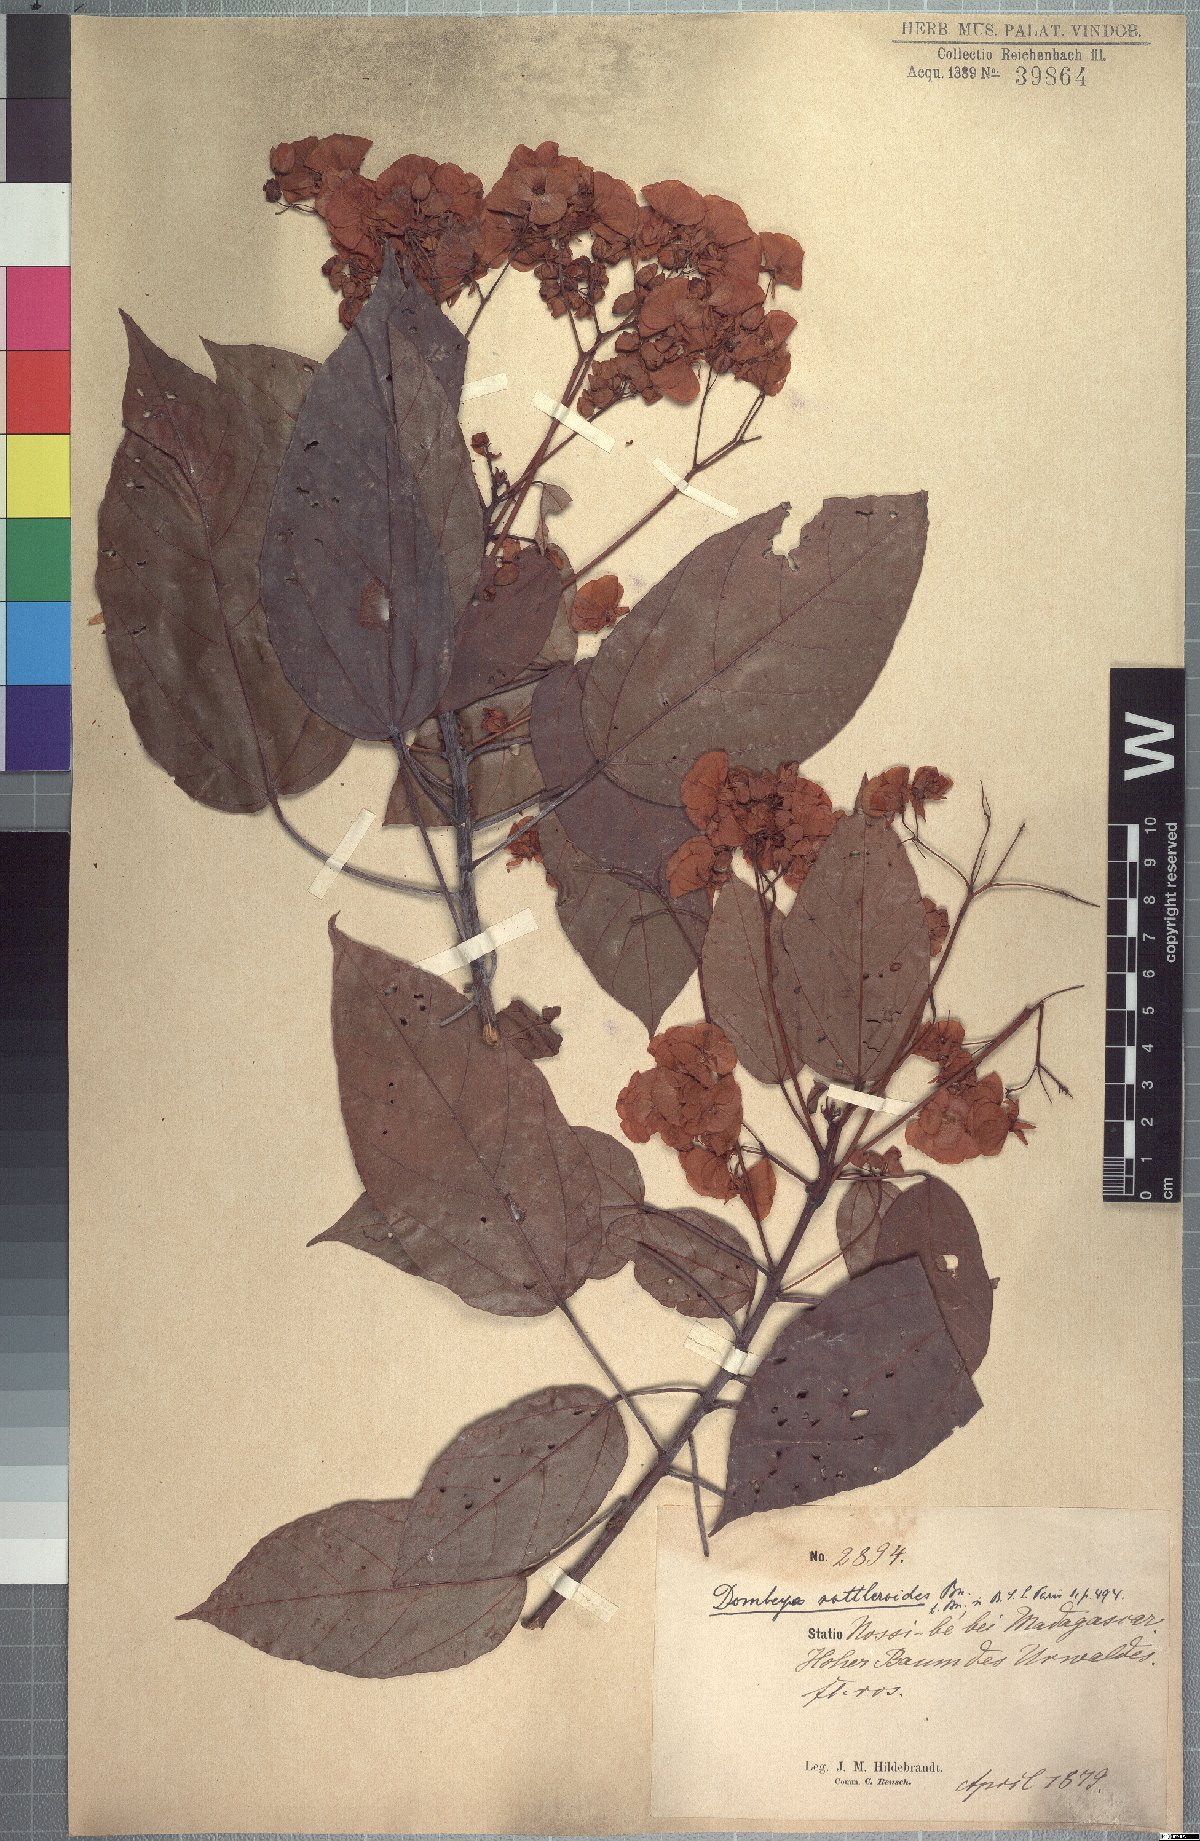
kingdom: Plantae
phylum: Tracheophyta
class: Magnoliopsida
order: Malvales
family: Malvaceae
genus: Dombeya
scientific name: Dombeya rottleroides
